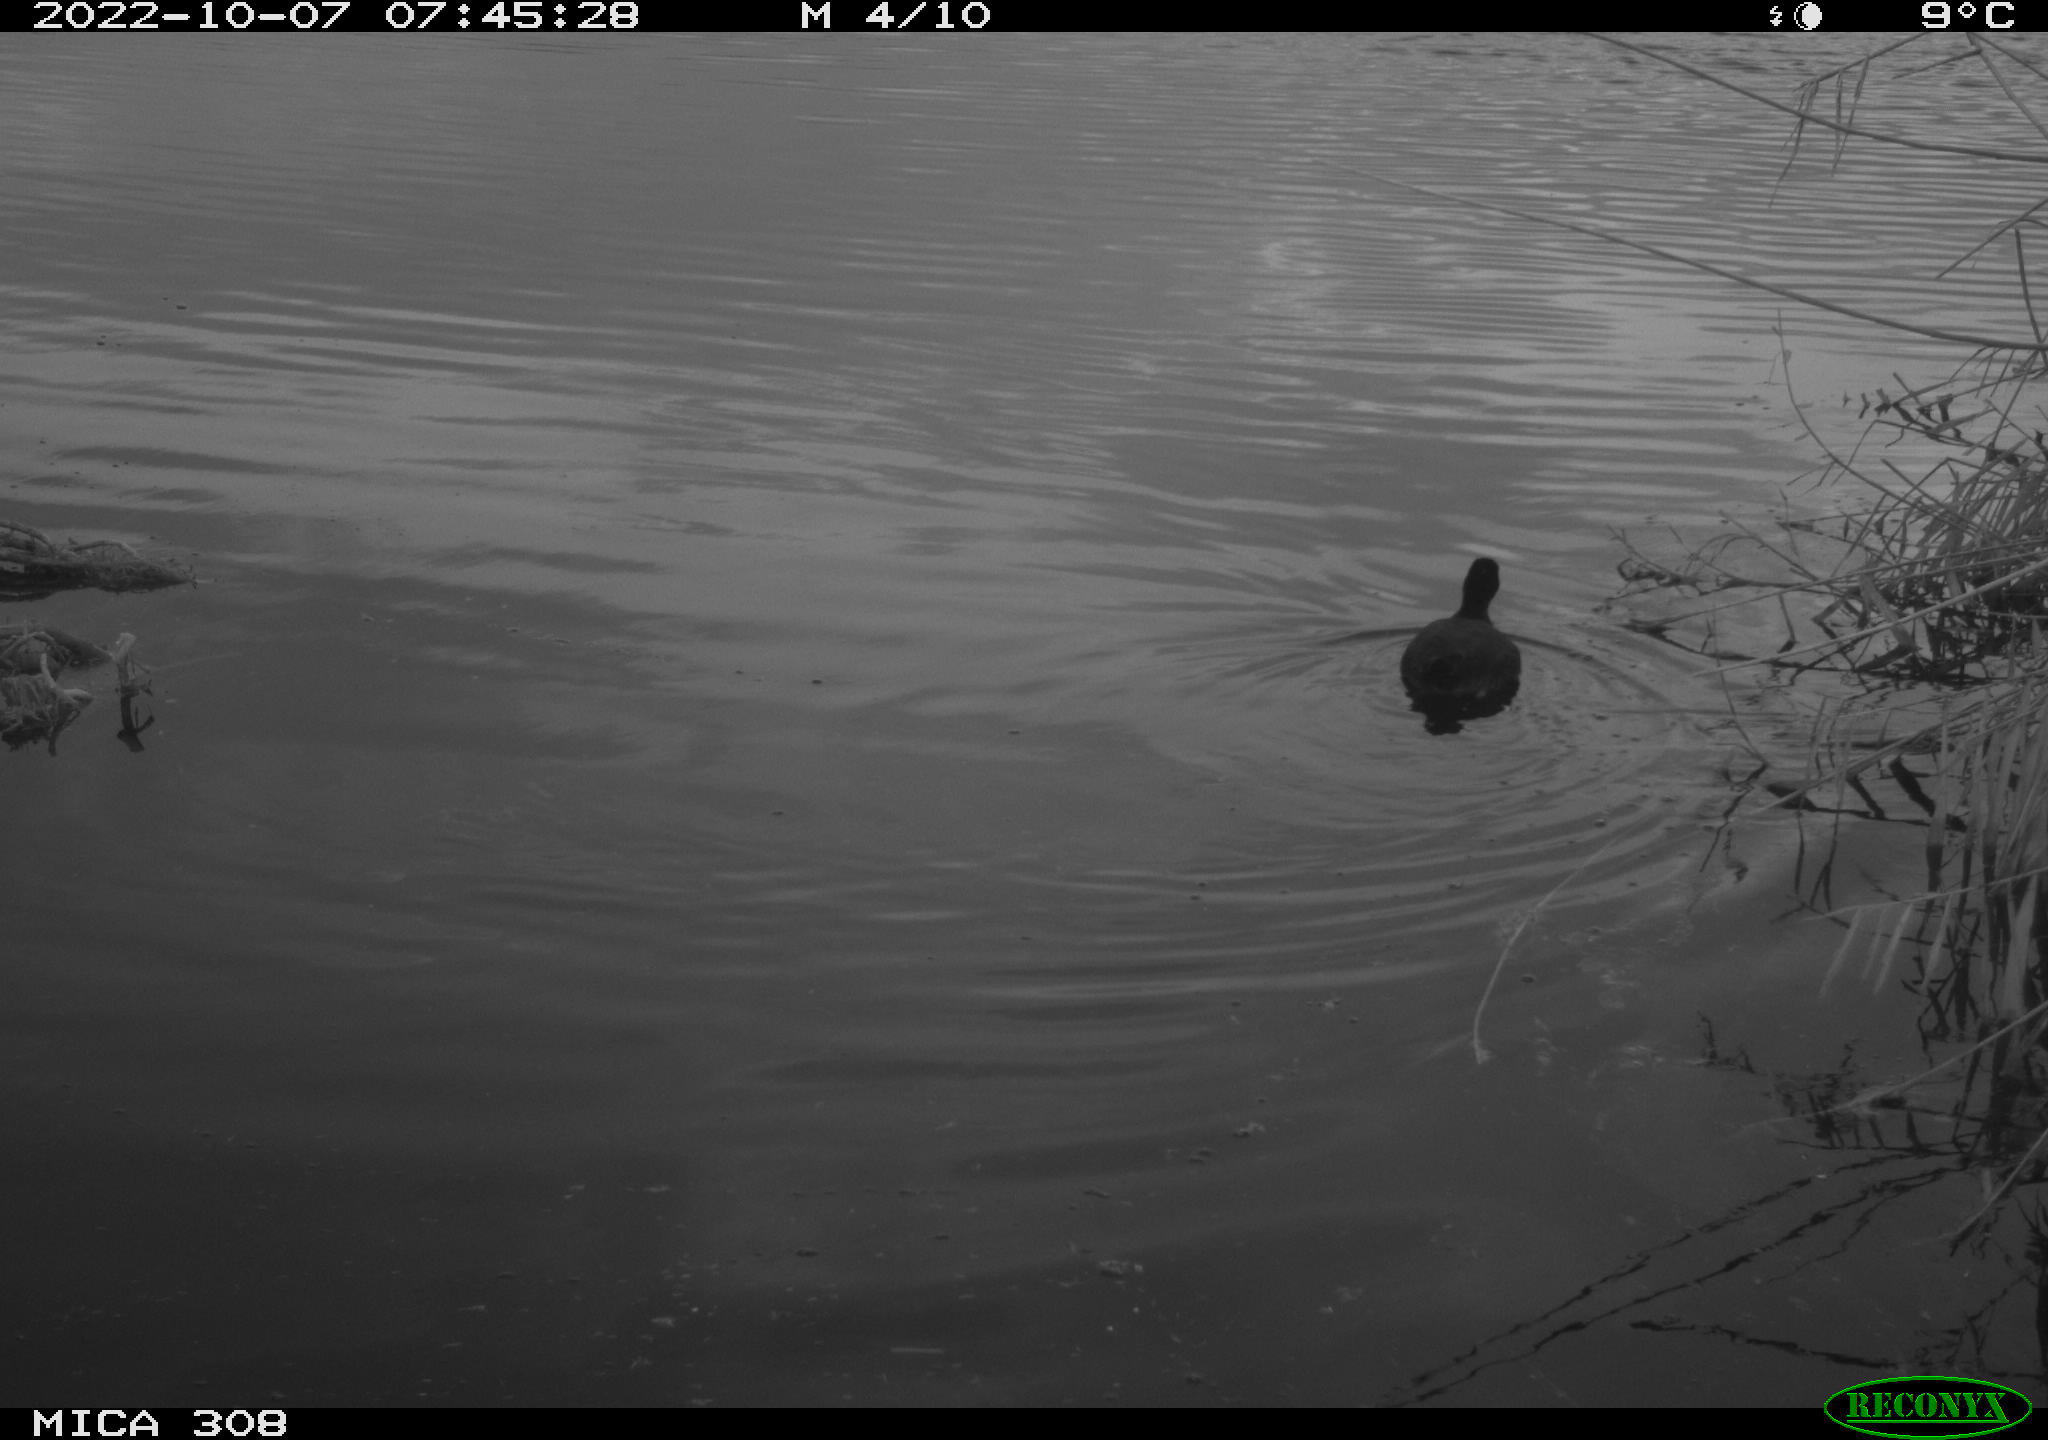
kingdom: Animalia
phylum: Chordata
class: Aves
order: Gruiformes
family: Rallidae
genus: Fulica
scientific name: Fulica atra
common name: Eurasian coot
